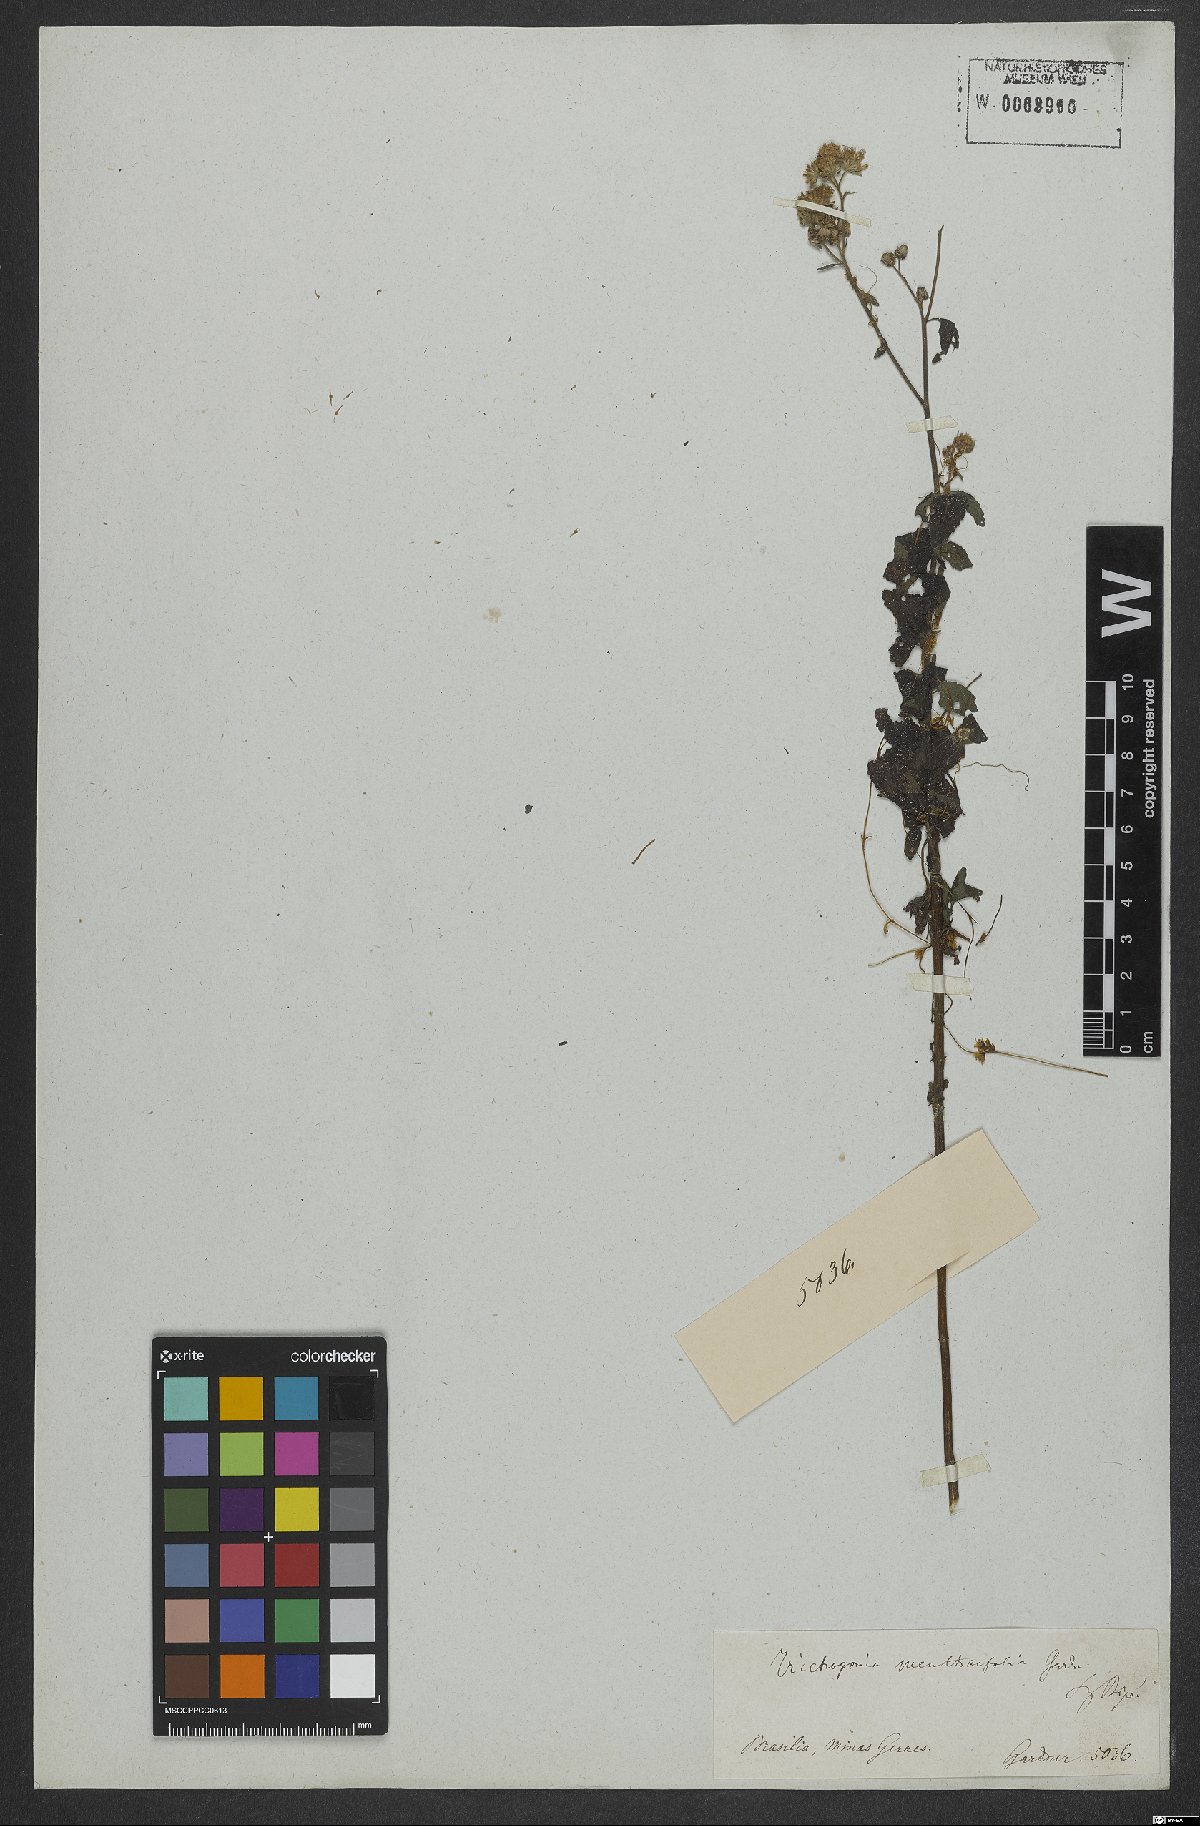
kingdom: Plantae
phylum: Tracheophyta
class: Magnoliopsida
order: Asterales
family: Asteraceae
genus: Trichogonia
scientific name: Trichogonia menthifolia
